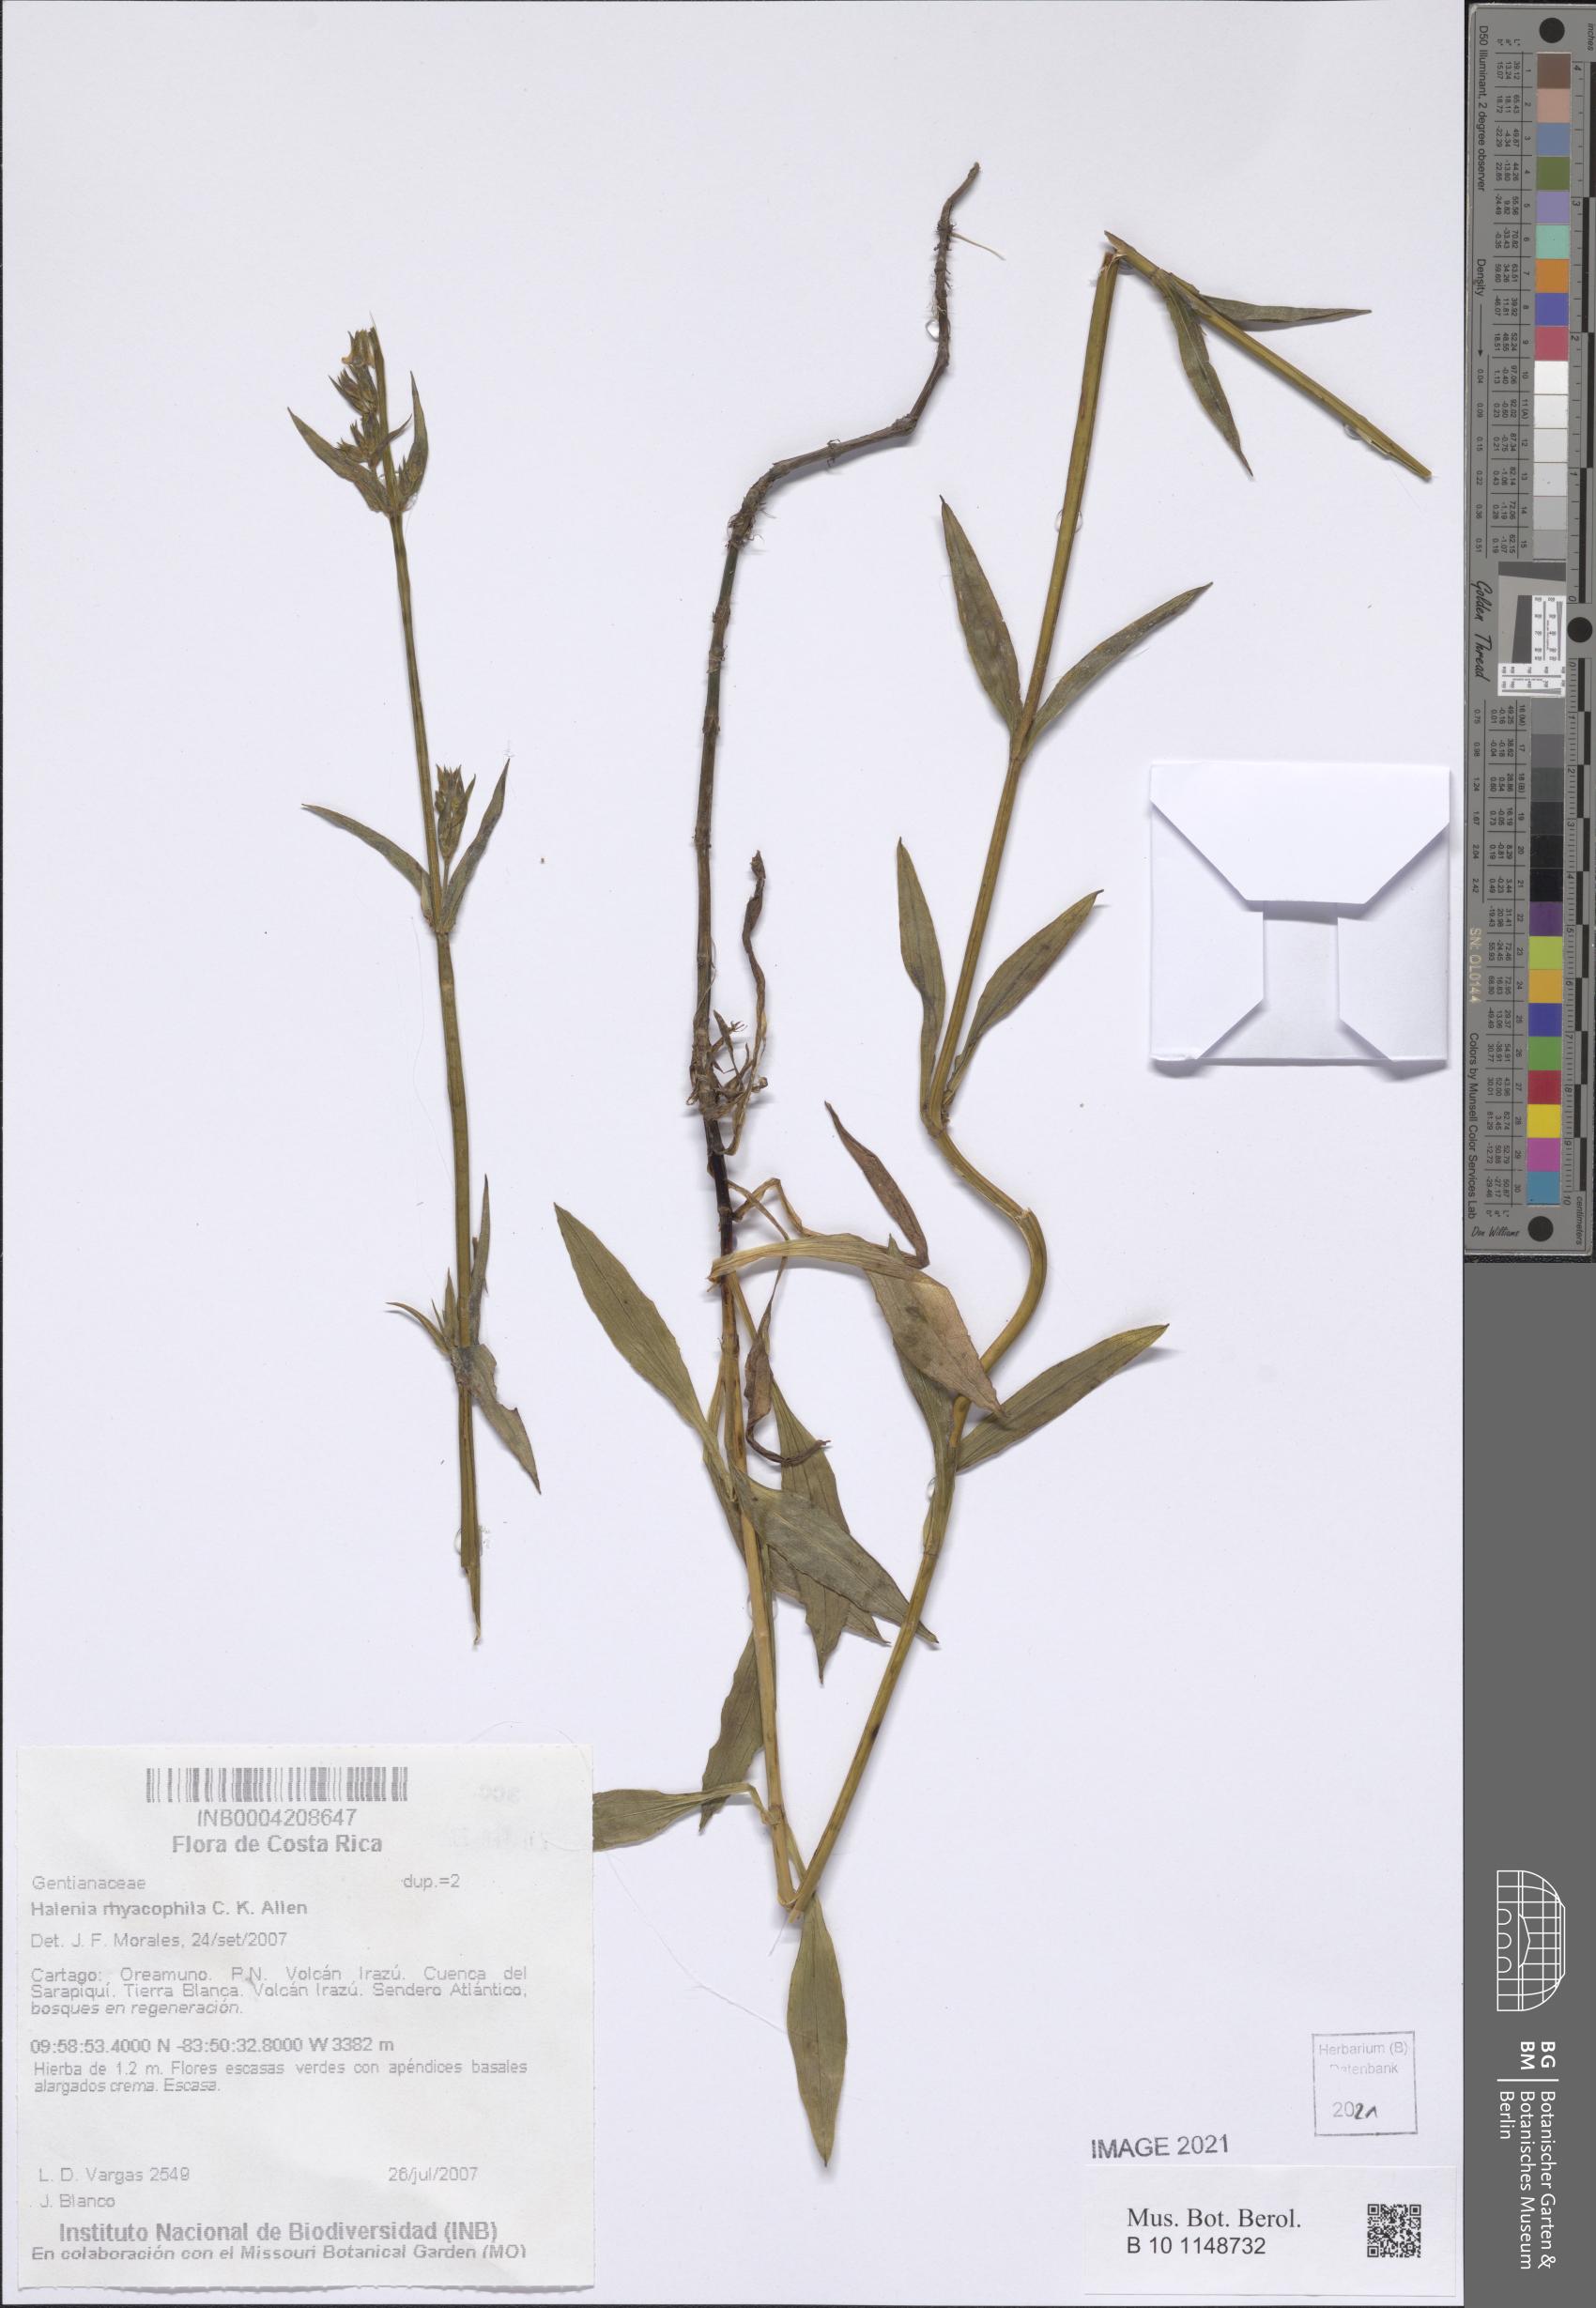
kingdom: Plantae
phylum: Tracheophyta
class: Magnoliopsida
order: Gentianales
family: Gentianaceae
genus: Halenia
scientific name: Halenia rhyacophila
